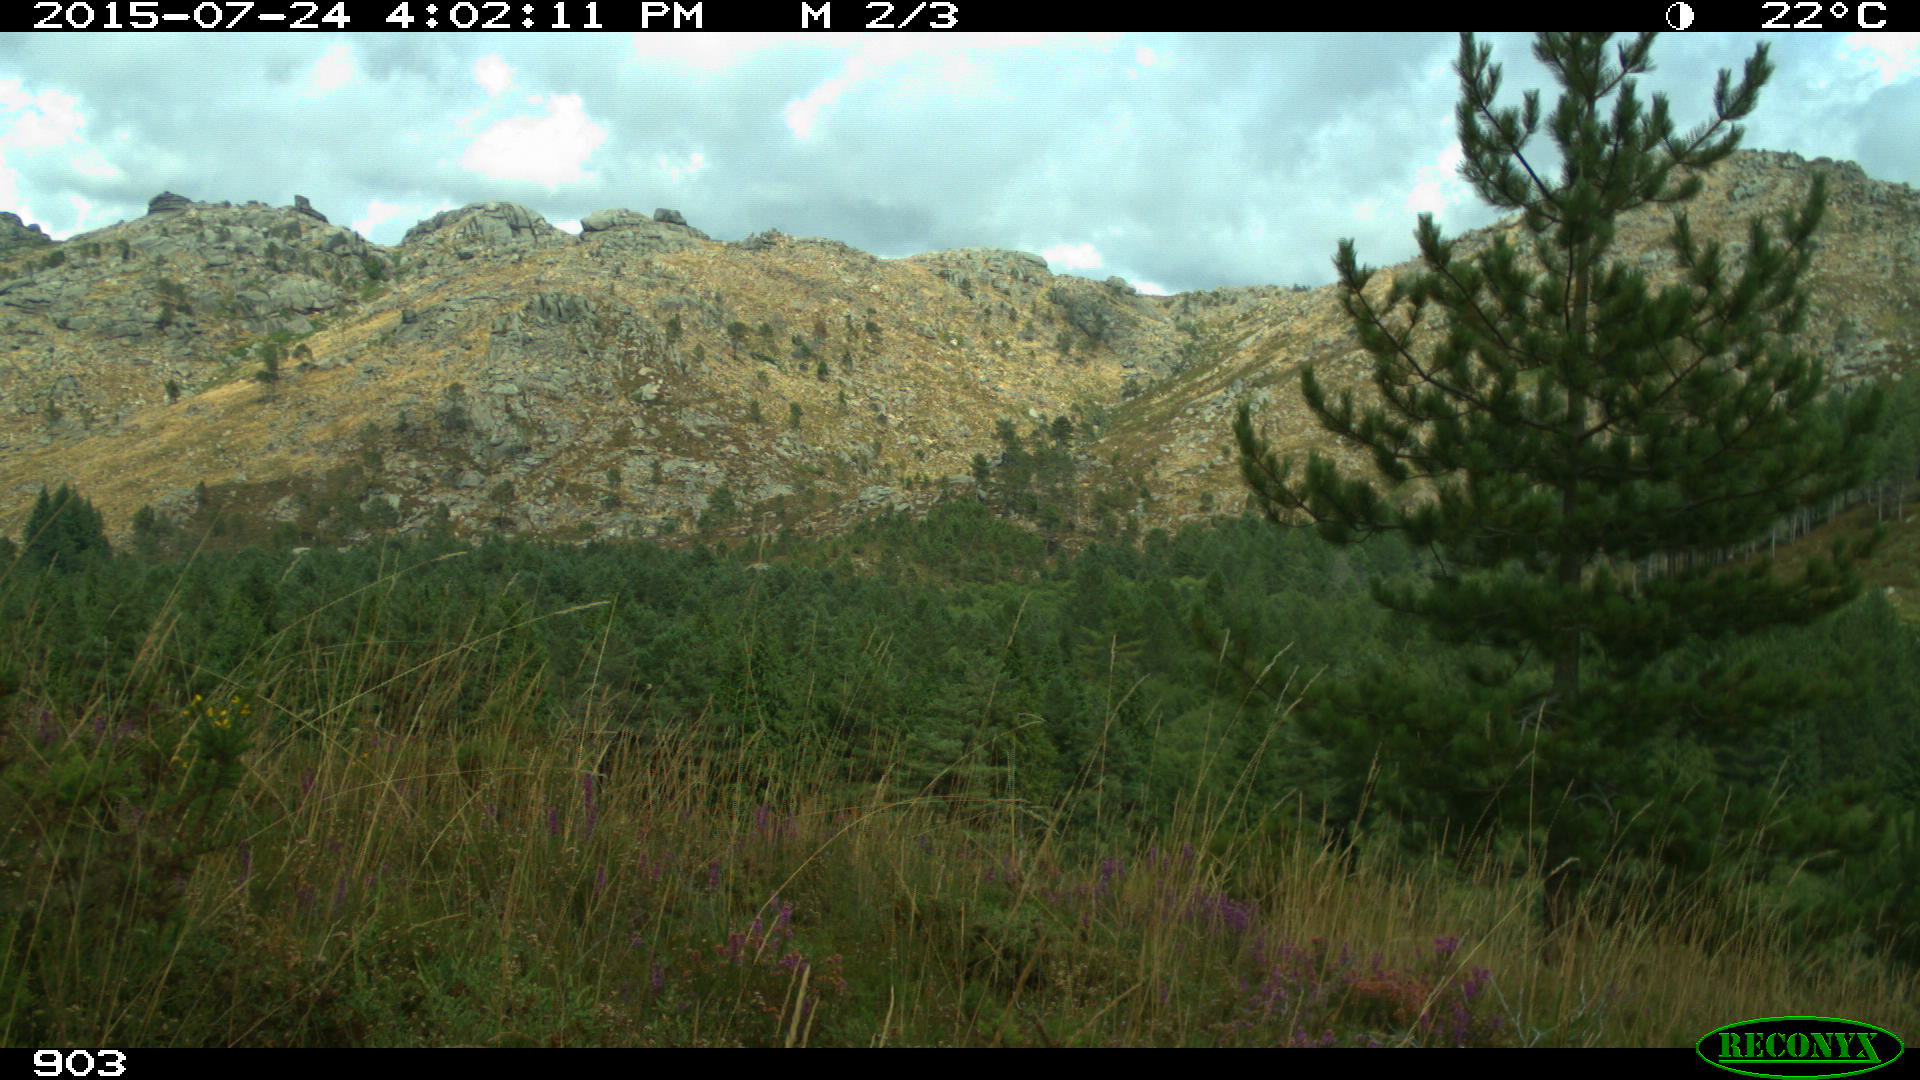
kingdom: Animalia
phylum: Chordata
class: Mammalia
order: Perissodactyla
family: Equidae
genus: Equus
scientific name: Equus caballus
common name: Horse
